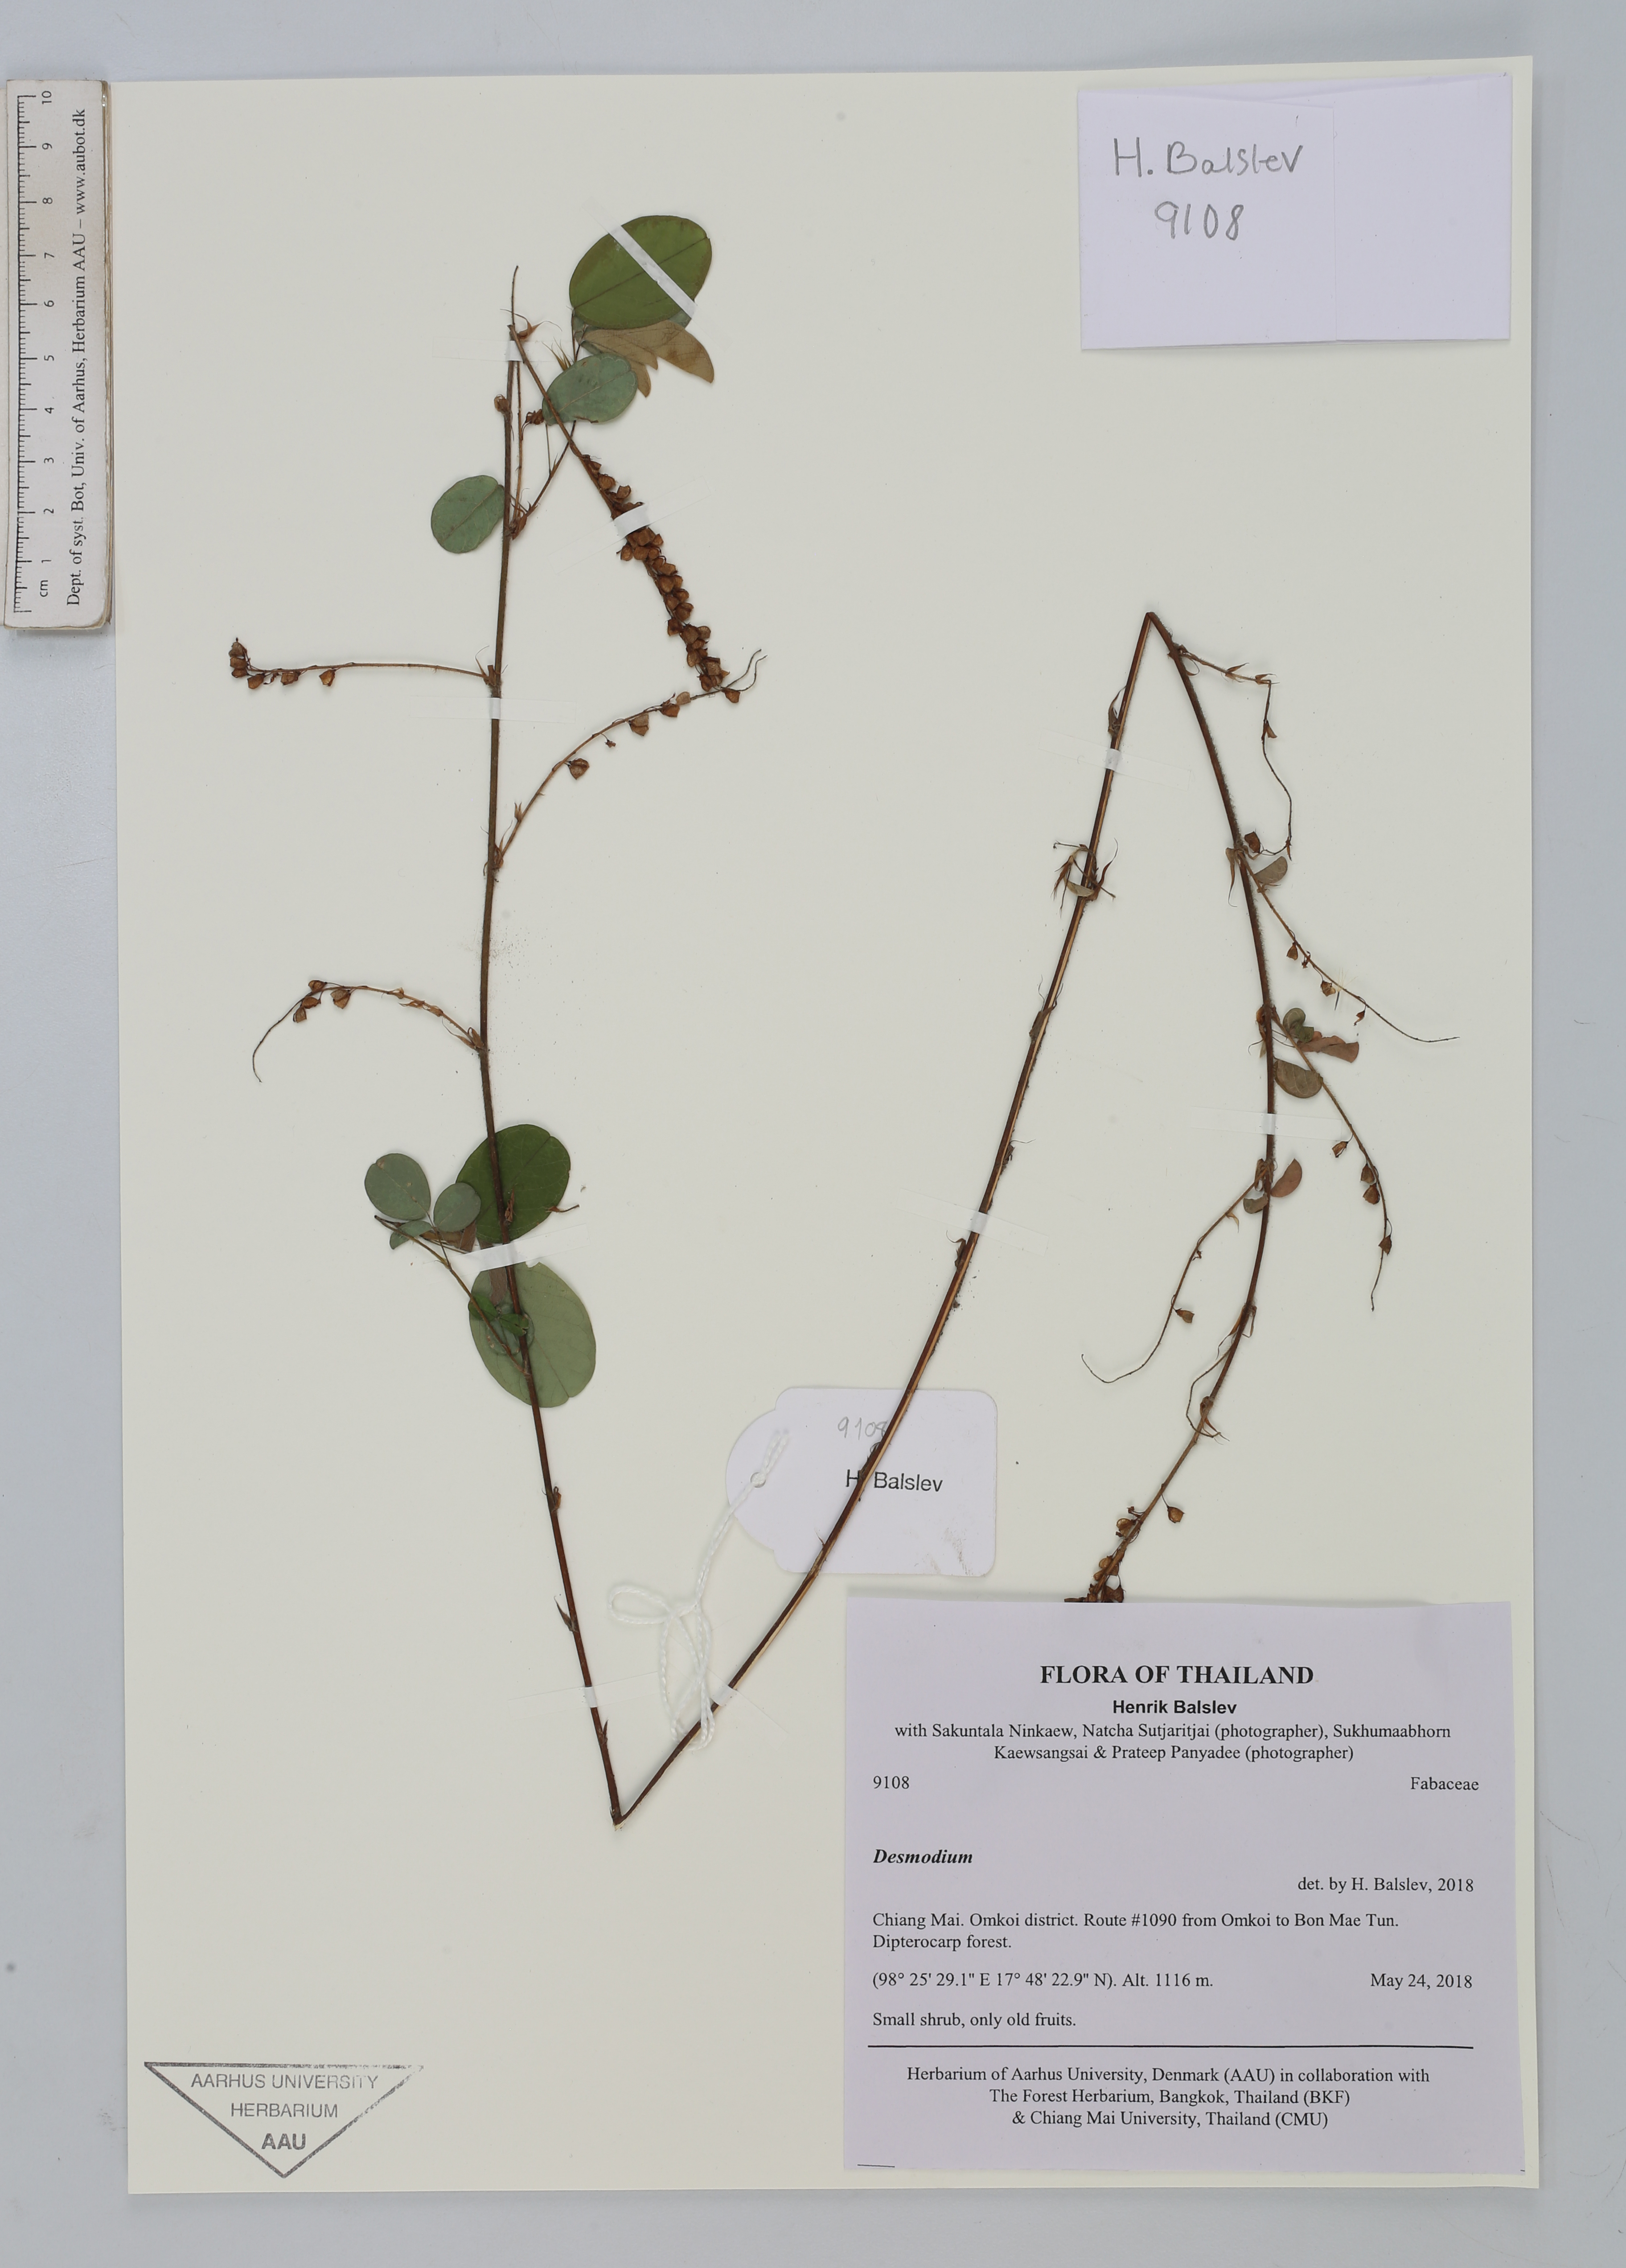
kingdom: Plantae
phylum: Tracheophyta
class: Magnoliopsida
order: Fabales
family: Fabaceae
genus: Desmodium
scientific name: Desmodium
